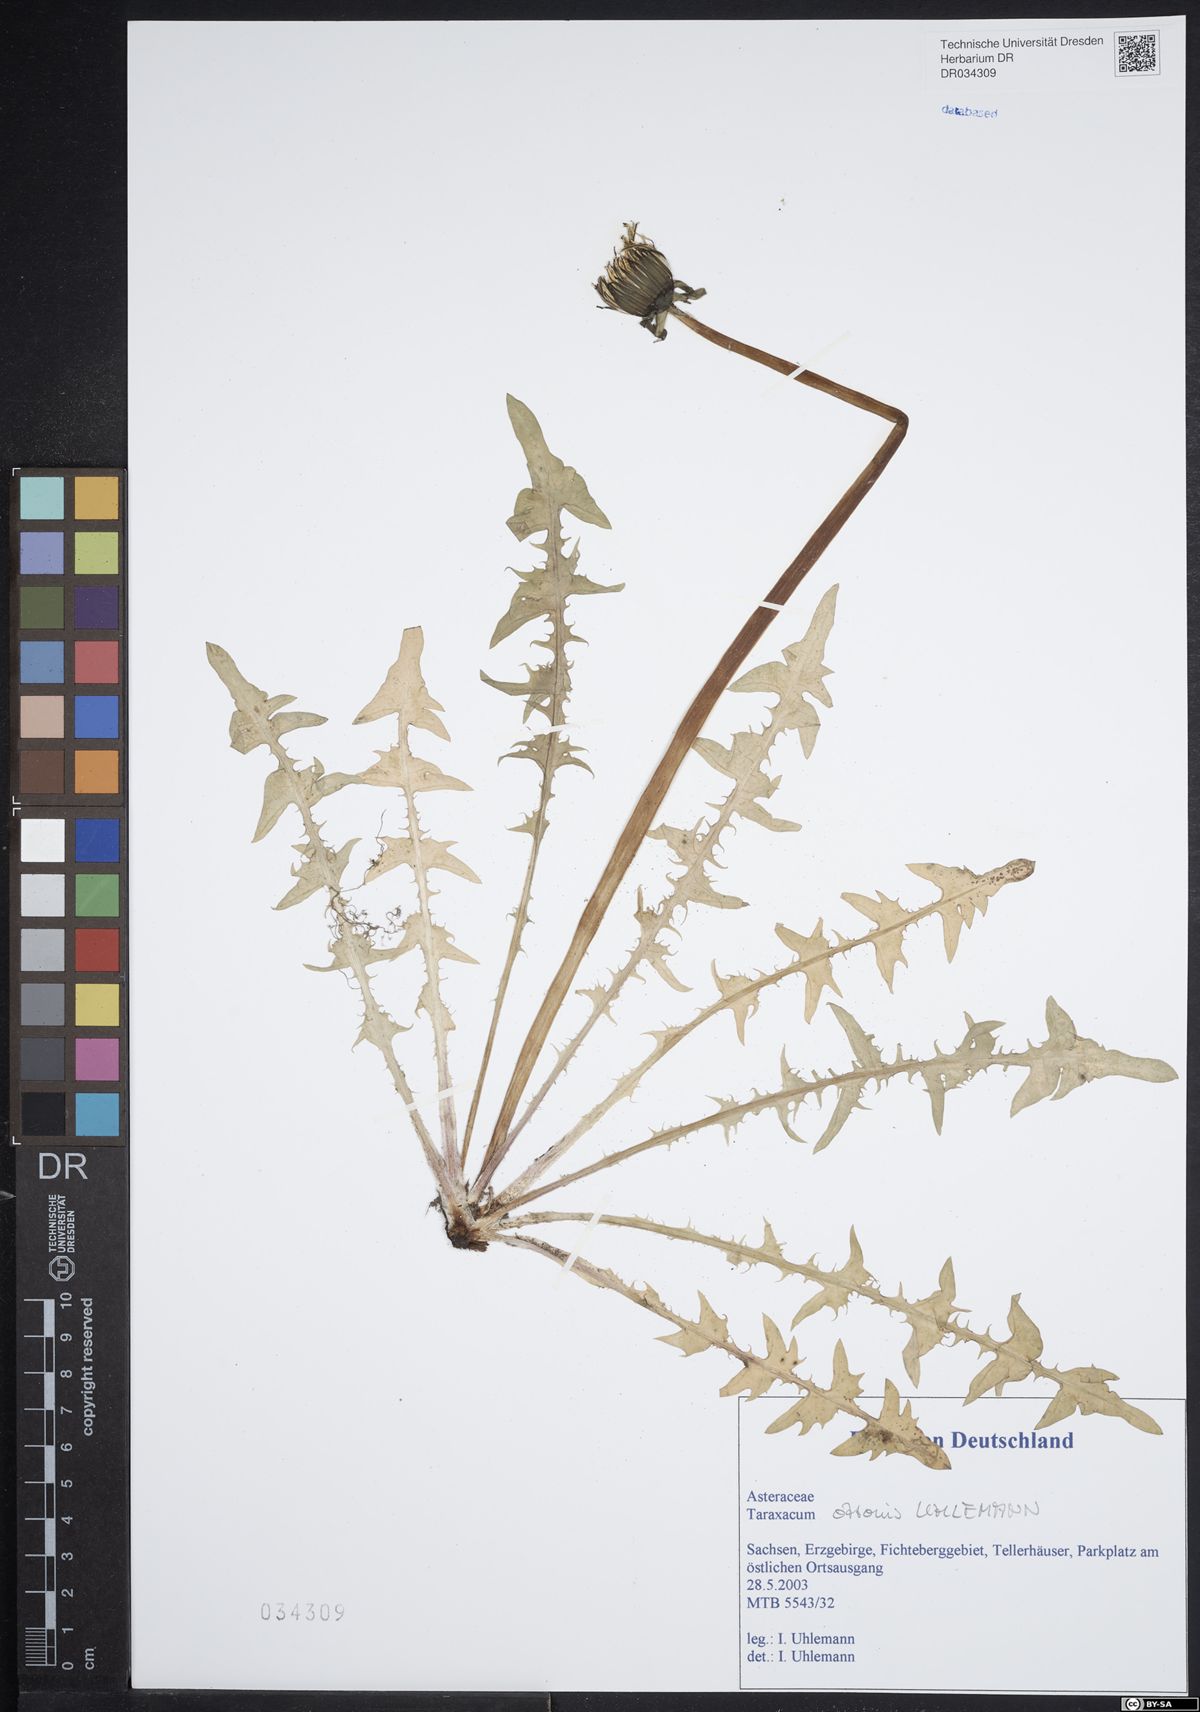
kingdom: Plantae
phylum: Tracheophyta
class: Magnoliopsida
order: Asterales
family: Asteraceae
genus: Taraxacum
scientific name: Taraxacum ottonis
